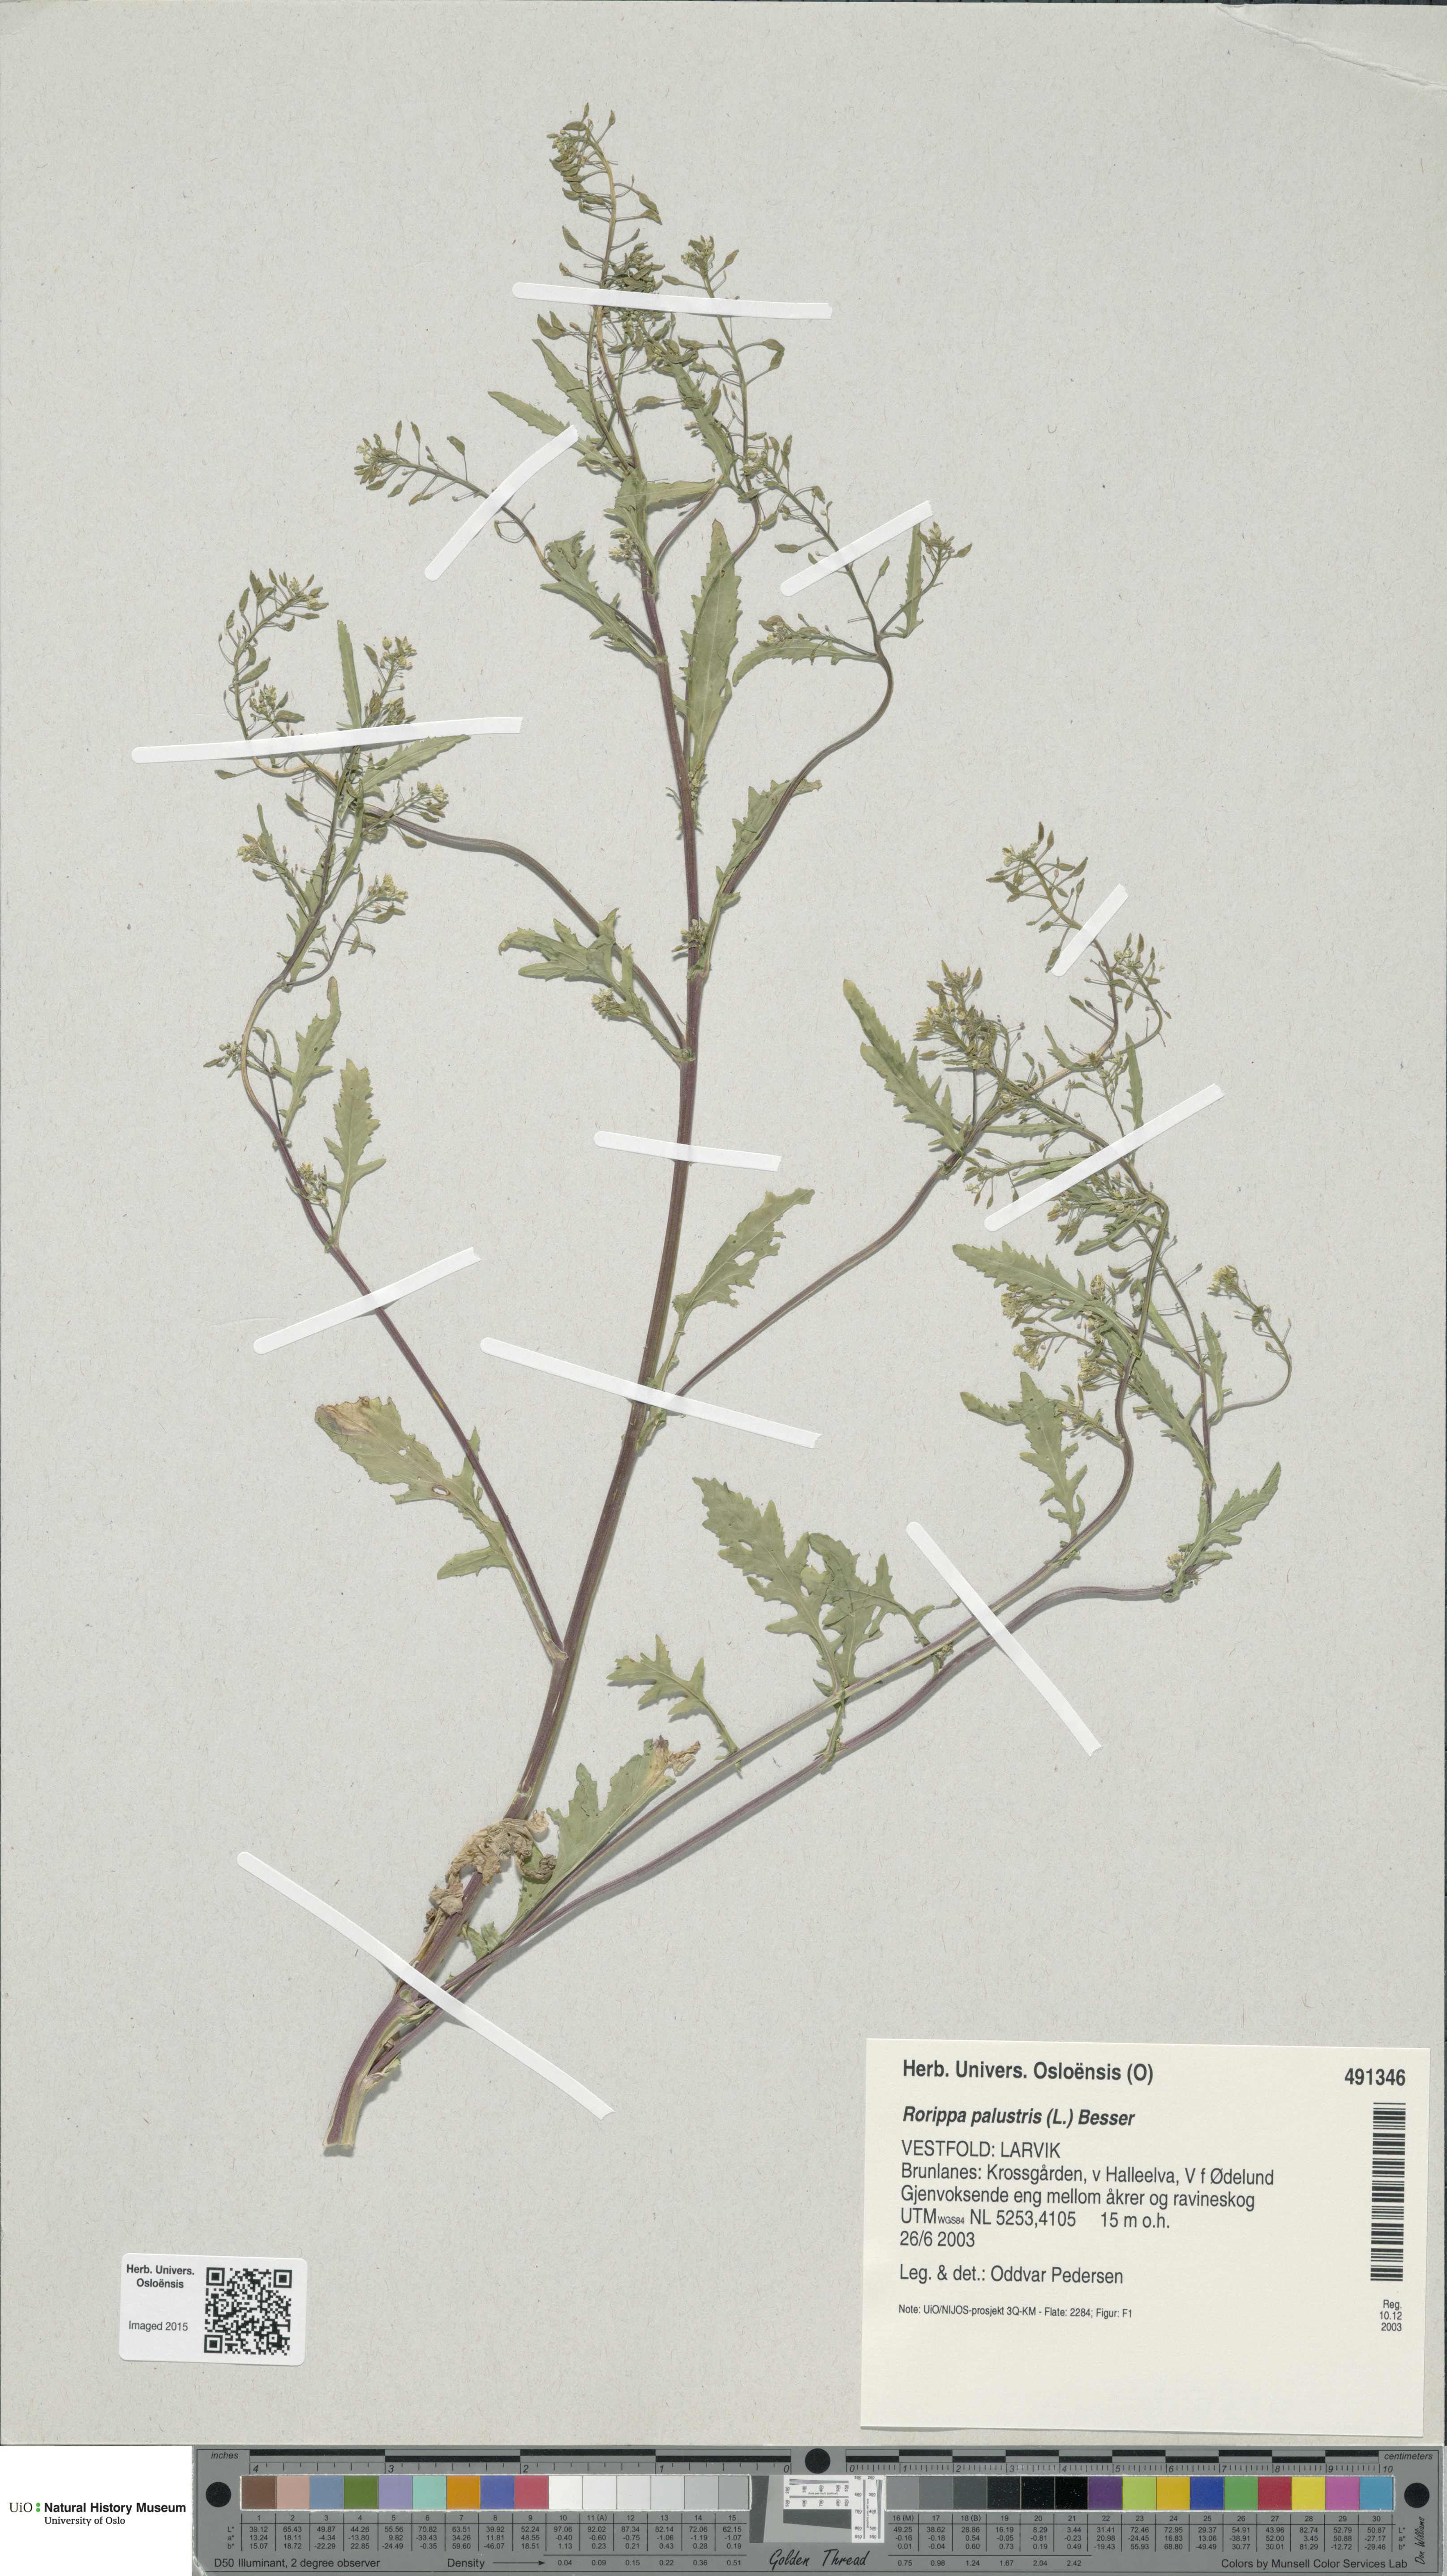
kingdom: Plantae
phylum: Tracheophyta
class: Magnoliopsida
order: Brassicales
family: Brassicaceae
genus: Rorippa
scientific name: Rorippa palustris
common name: Marsh yellow-cress
